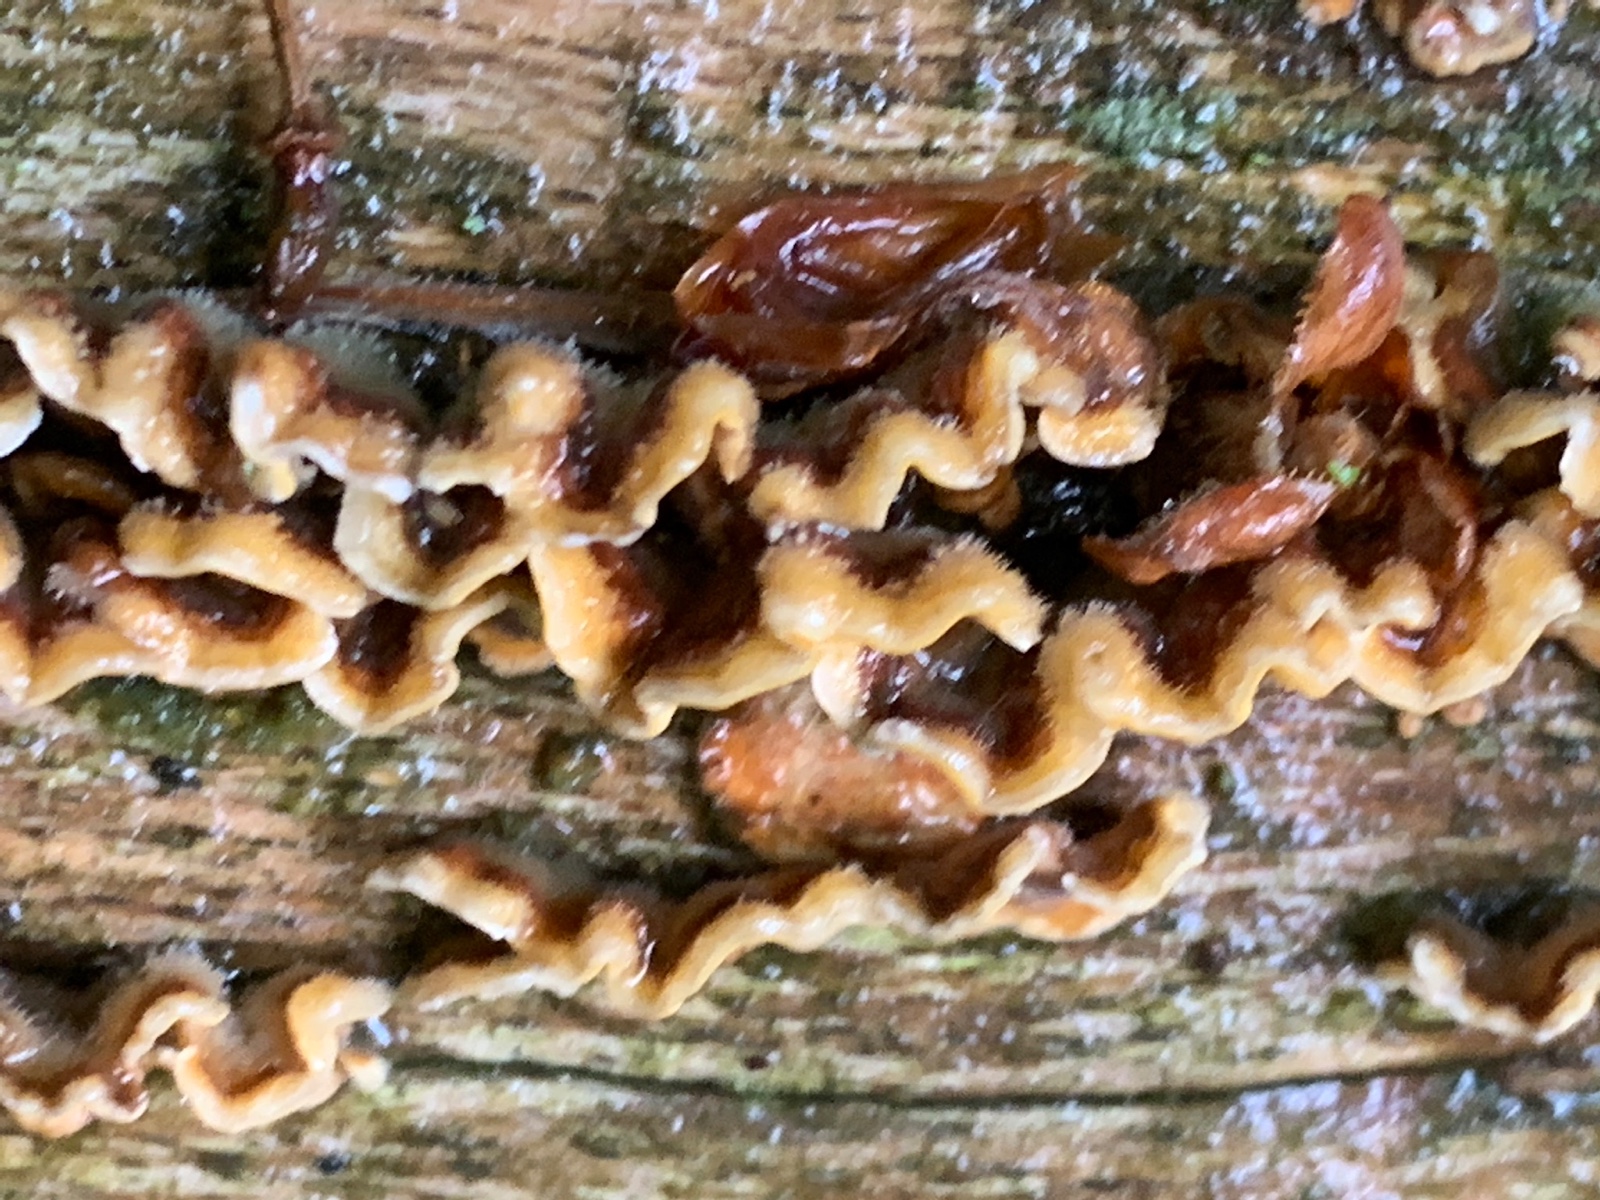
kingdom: Fungi
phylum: Basidiomycota
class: Agaricomycetes
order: Russulales
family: Stereaceae
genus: Stereum
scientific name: Stereum hirsutum
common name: håret lædersvamp
